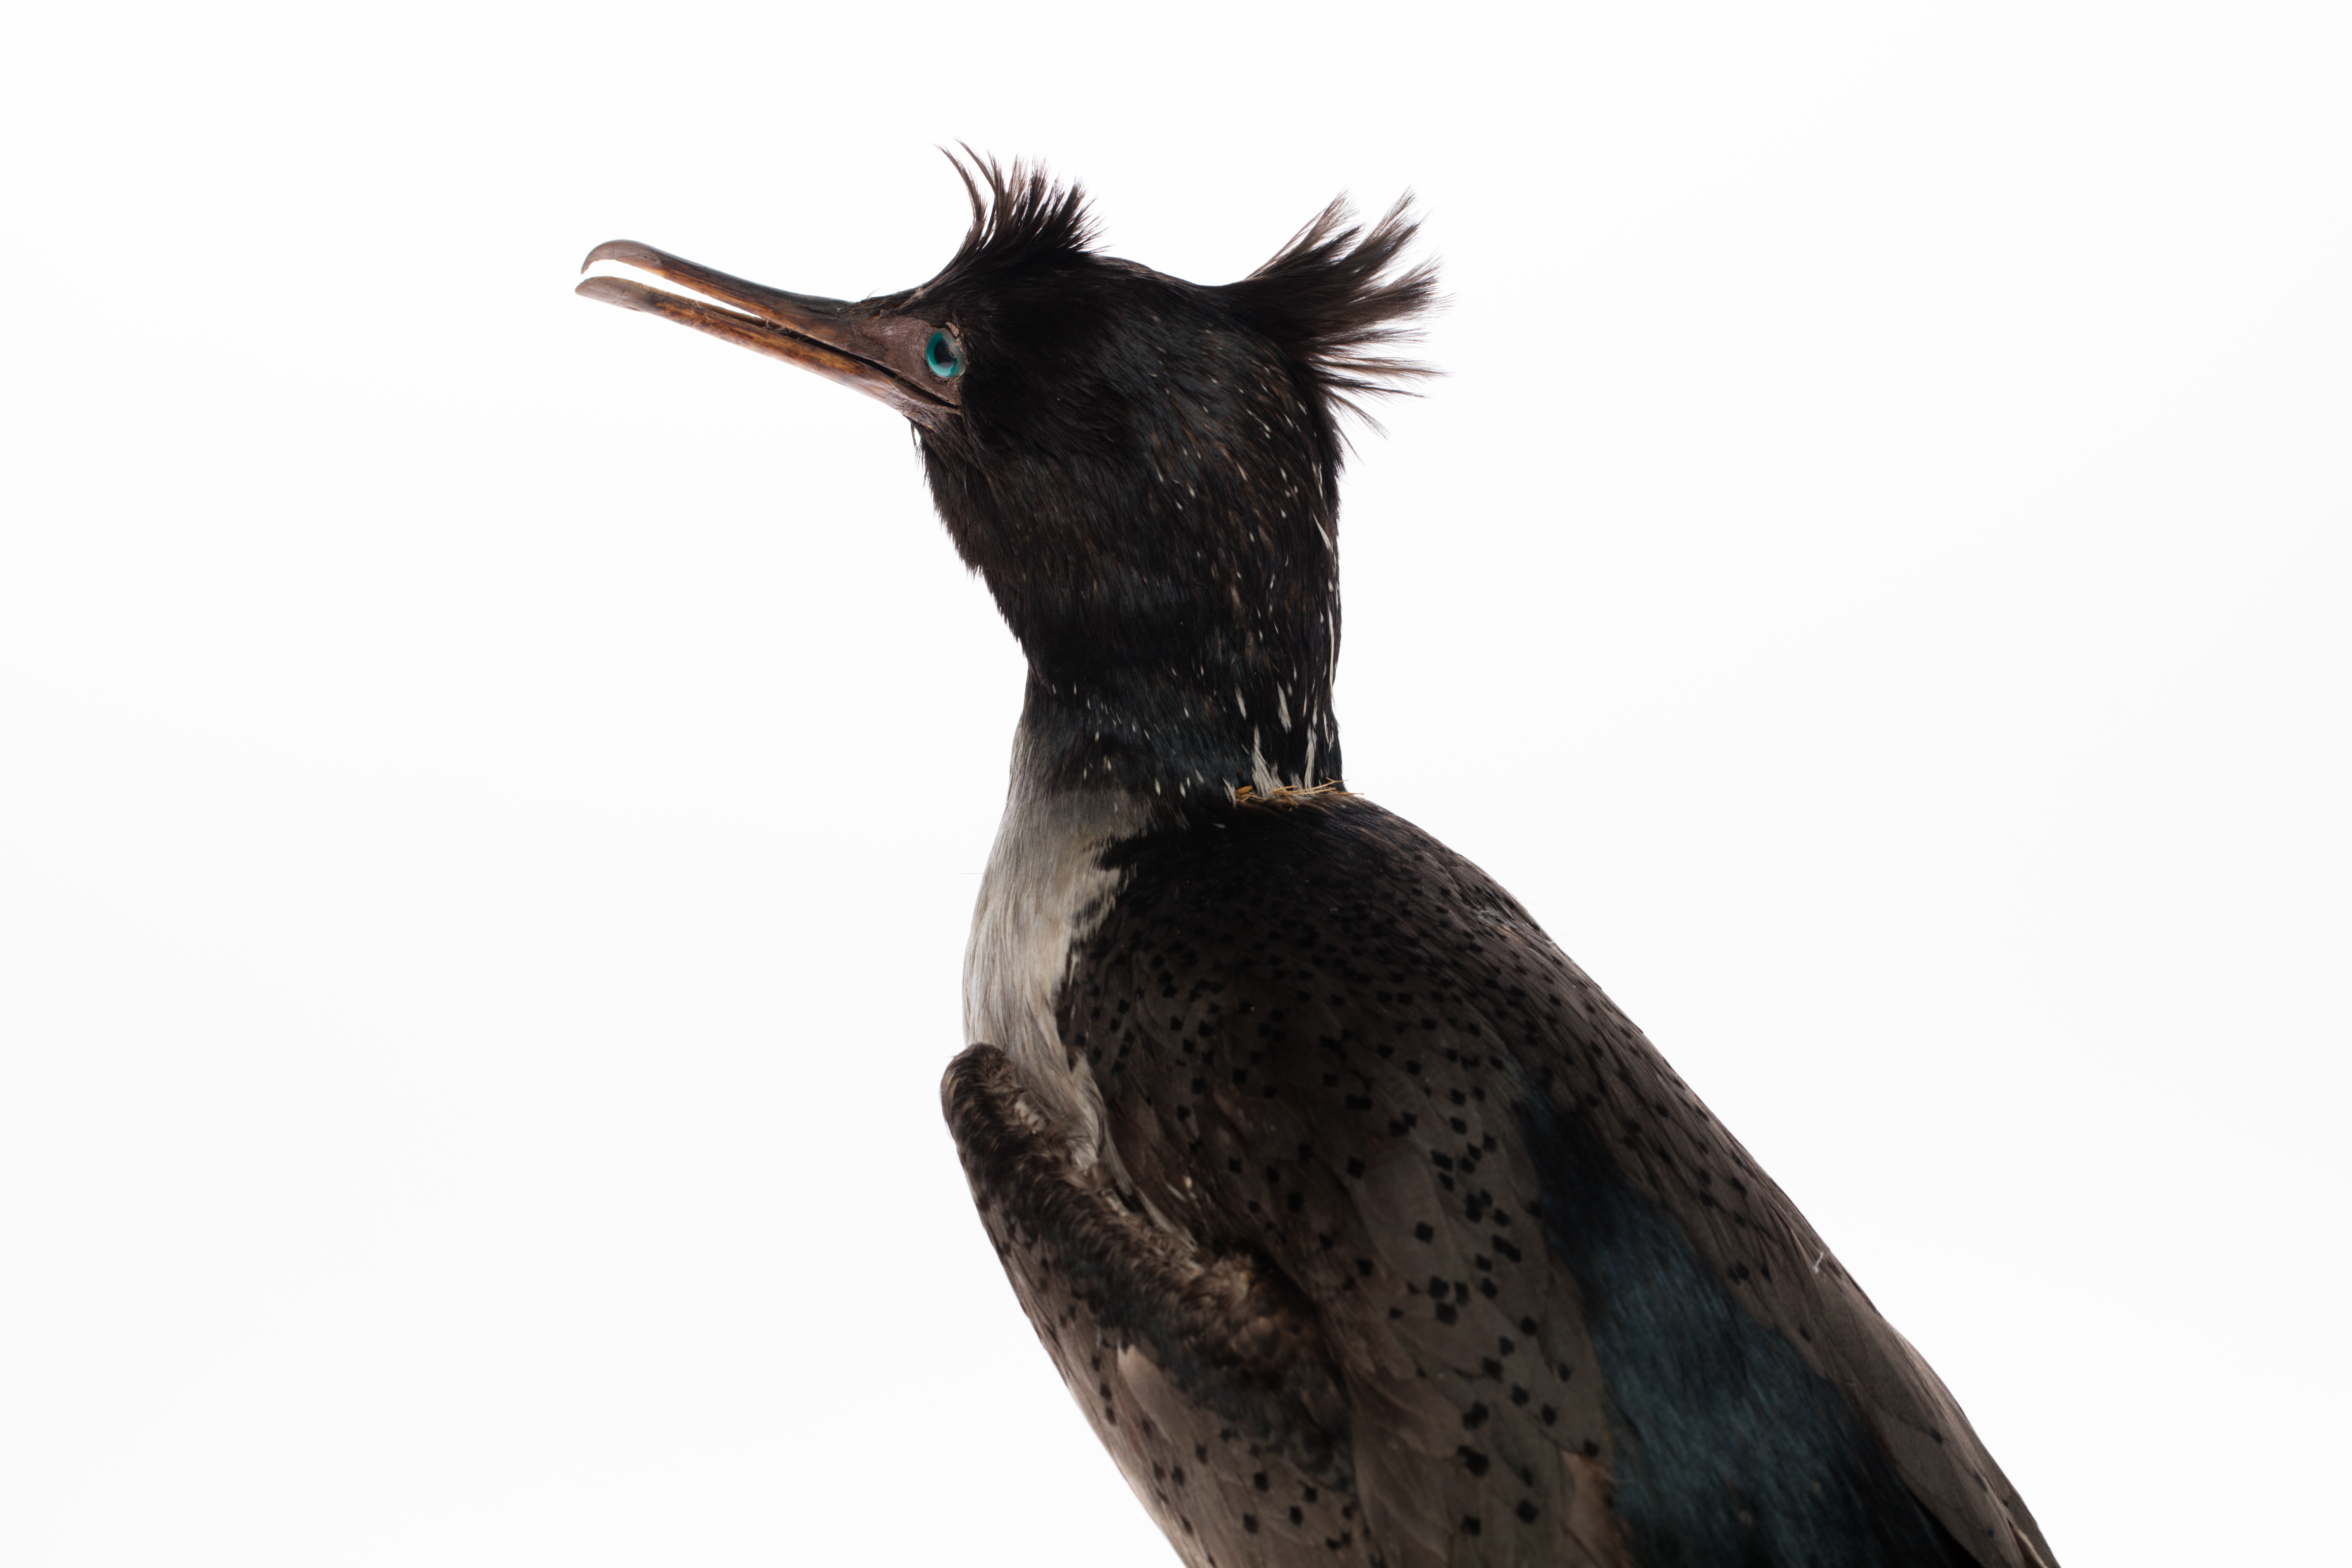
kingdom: Animalia
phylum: Chordata
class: Aves
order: Suliformes
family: Phalacrocoracidae
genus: Phalacrocorax
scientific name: Phalacrocorax featherstoni
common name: Pitt shag
